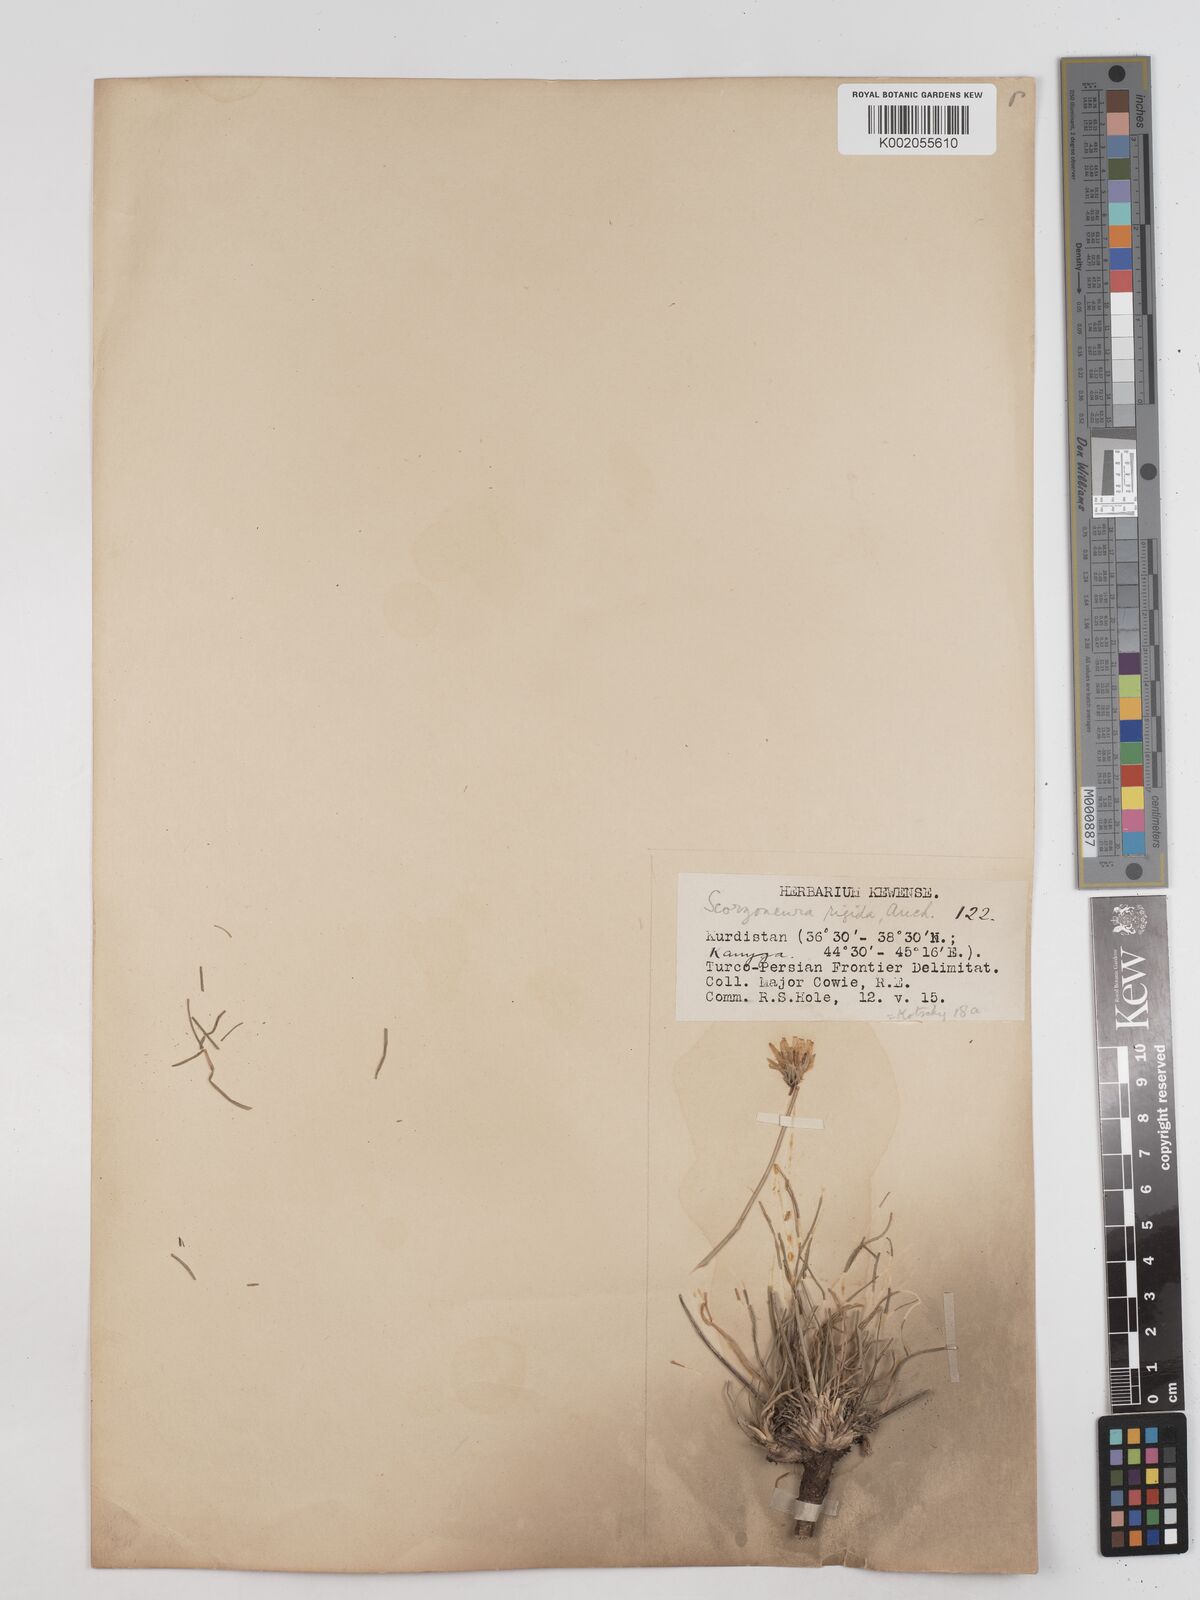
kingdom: Plantae
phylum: Tracheophyta
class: Magnoliopsida
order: Asterales
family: Asteraceae
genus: Goekyighitia
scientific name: Goekyighitia rigida
